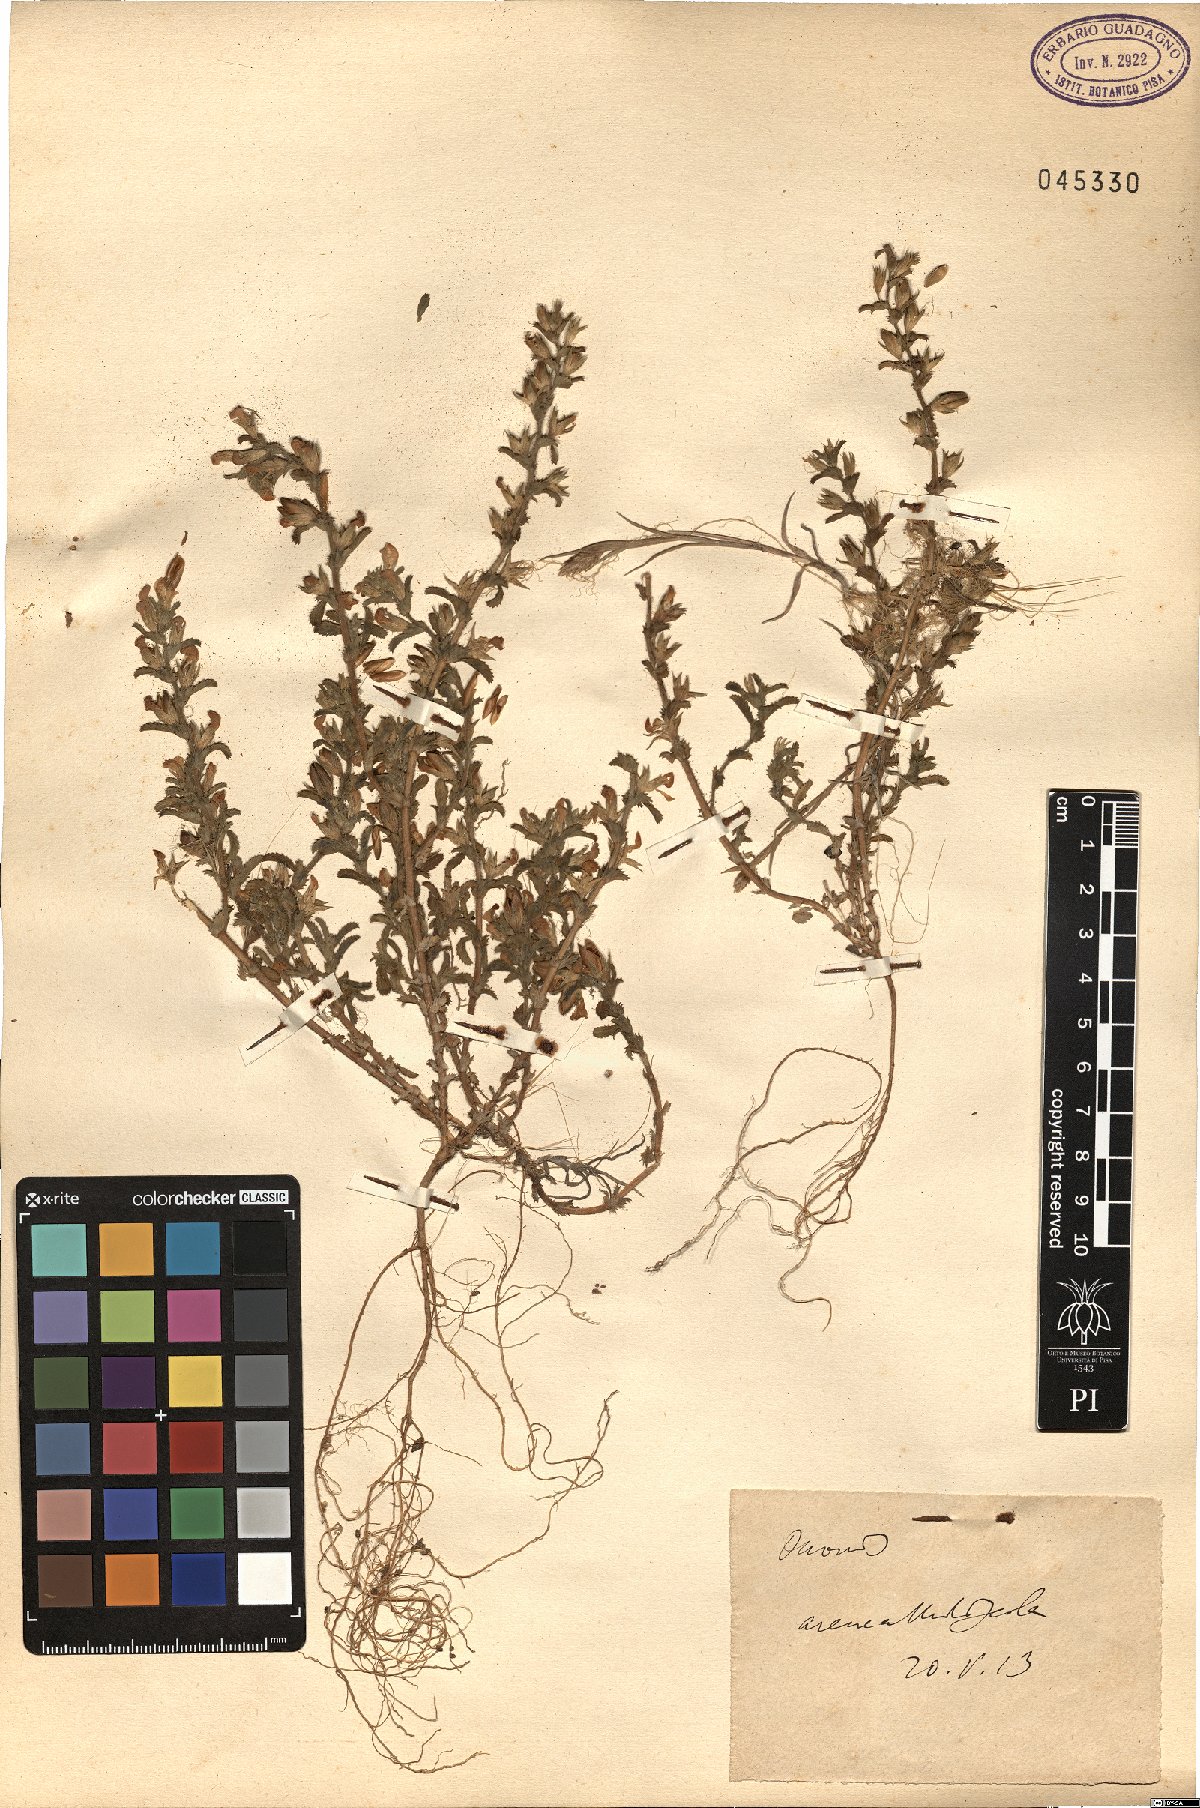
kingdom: Plantae
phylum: Tracheophyta
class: Magnoliopsida
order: Fabales
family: Fabaceae
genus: Ononis
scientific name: Ononis
